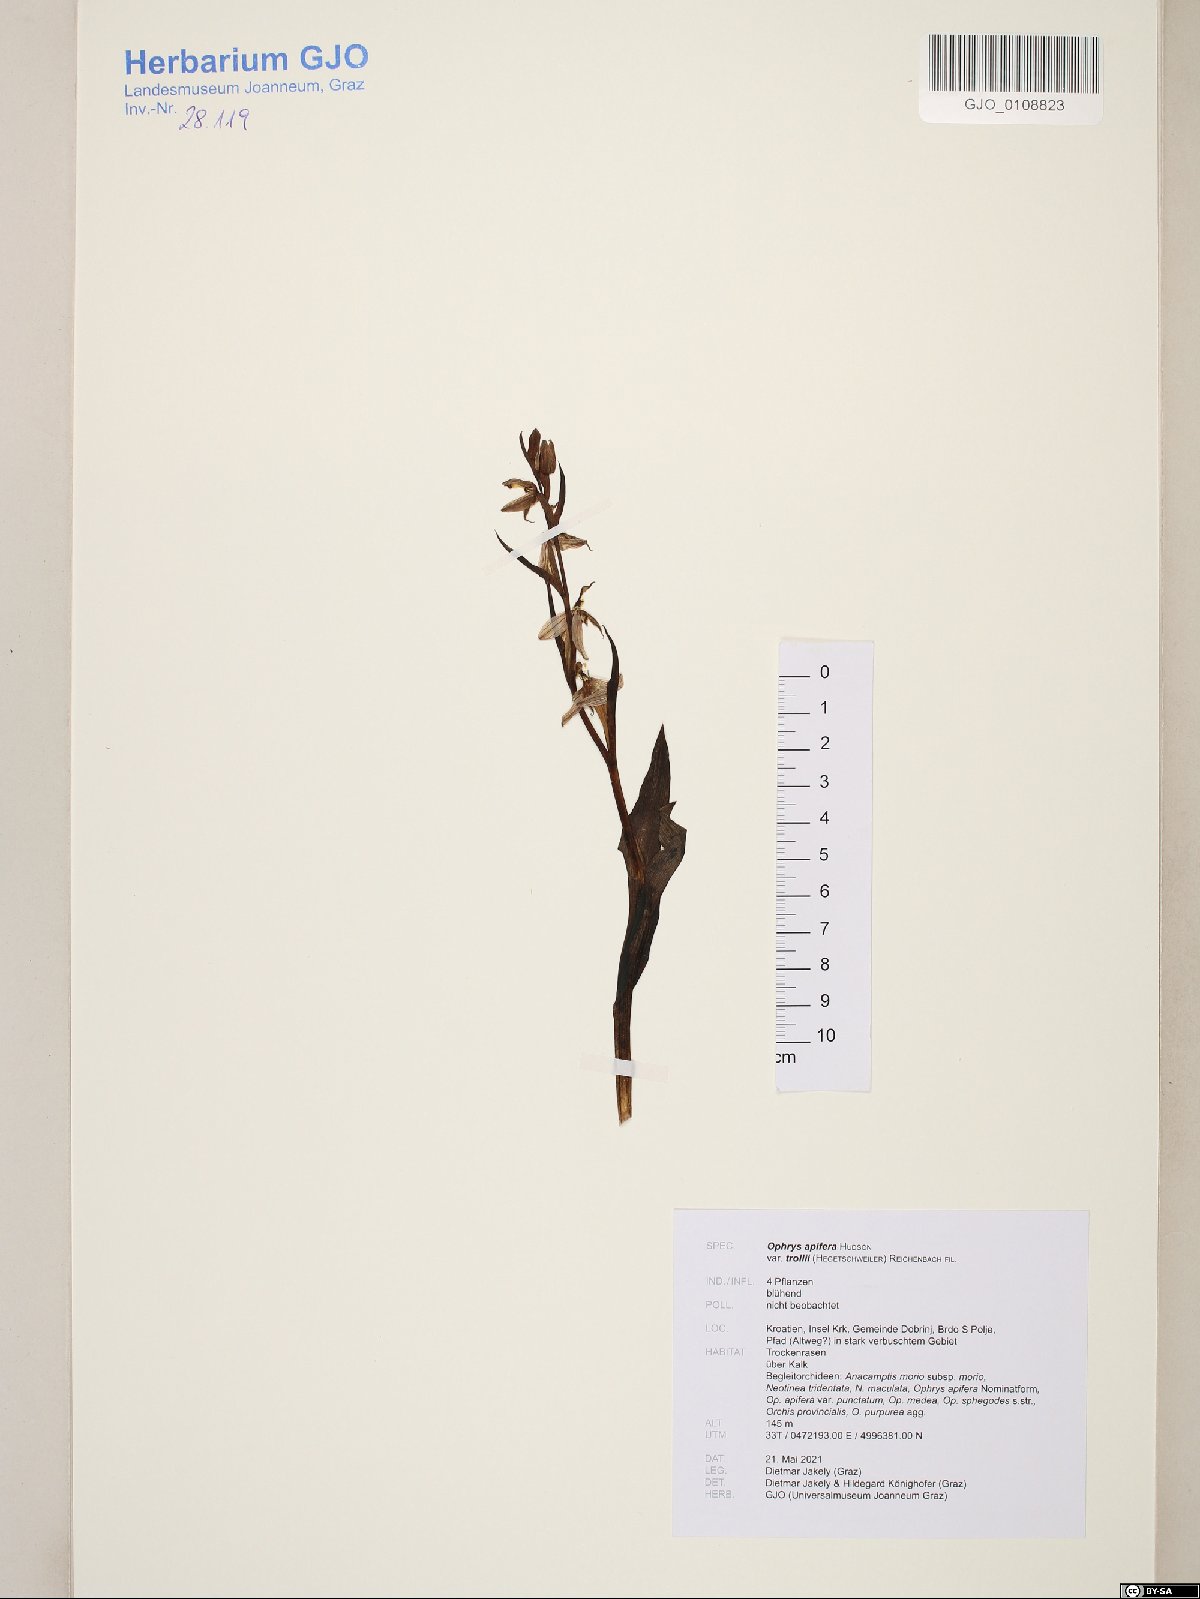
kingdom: Plantae
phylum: Tracheophyta
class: Liliopsida
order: Asparagales
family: Orchidaceae
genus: Ophrys
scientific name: Ophrys apifera
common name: Bee orchid
